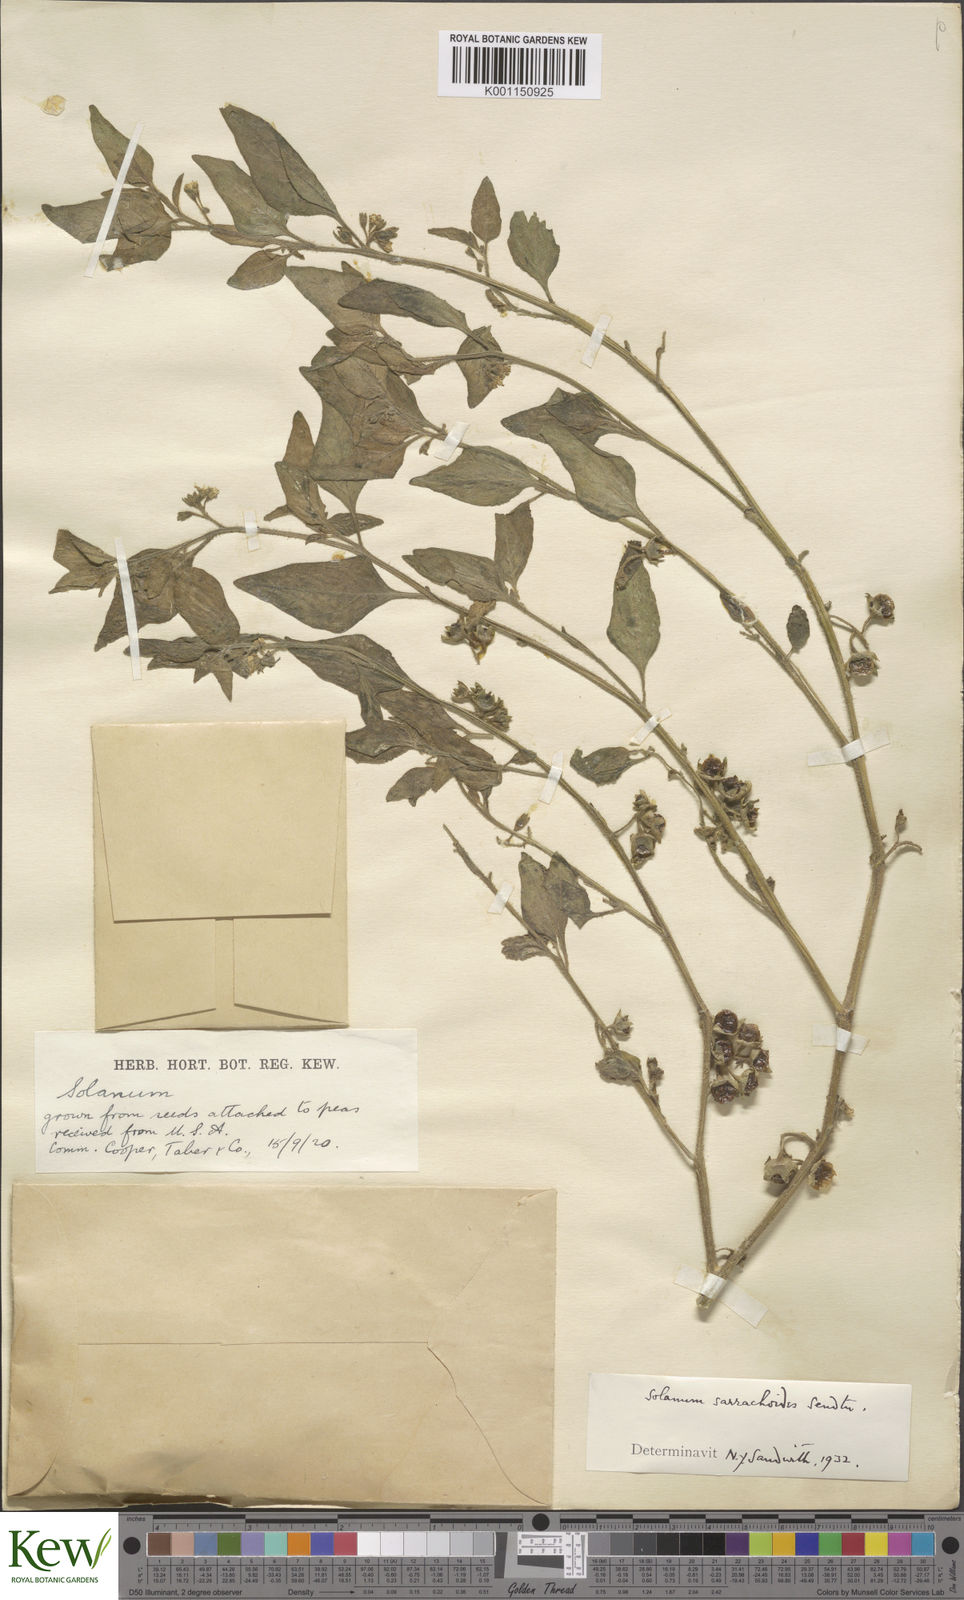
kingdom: Plantae
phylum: Tracheophyta
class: Magnoliopsida
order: Solanales
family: Solanaceae
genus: Solanum
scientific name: Solanum nitidibaccatum
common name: Hairy nightshade
